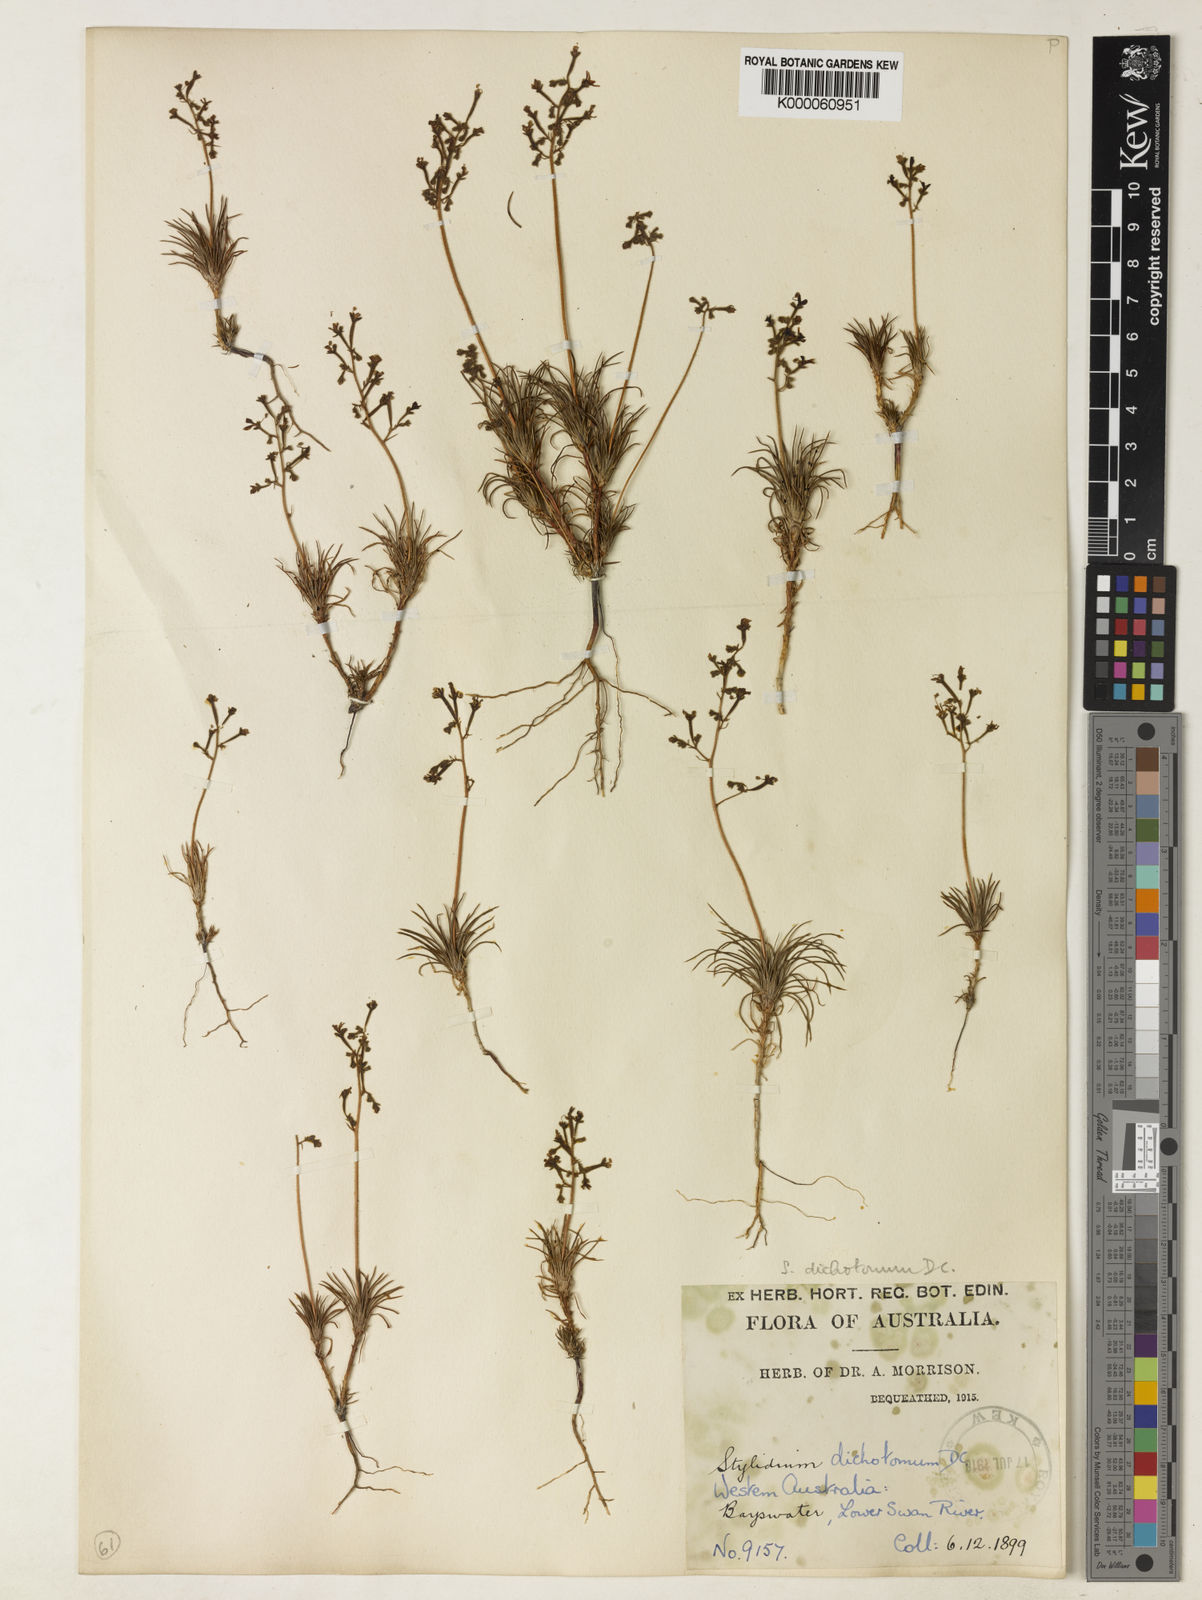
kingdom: Plantae
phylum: Tracheophyta
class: Magnoliopsida
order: Asterales
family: Stylidiaceae
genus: Stylidium
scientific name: Stylidium dichotomum
